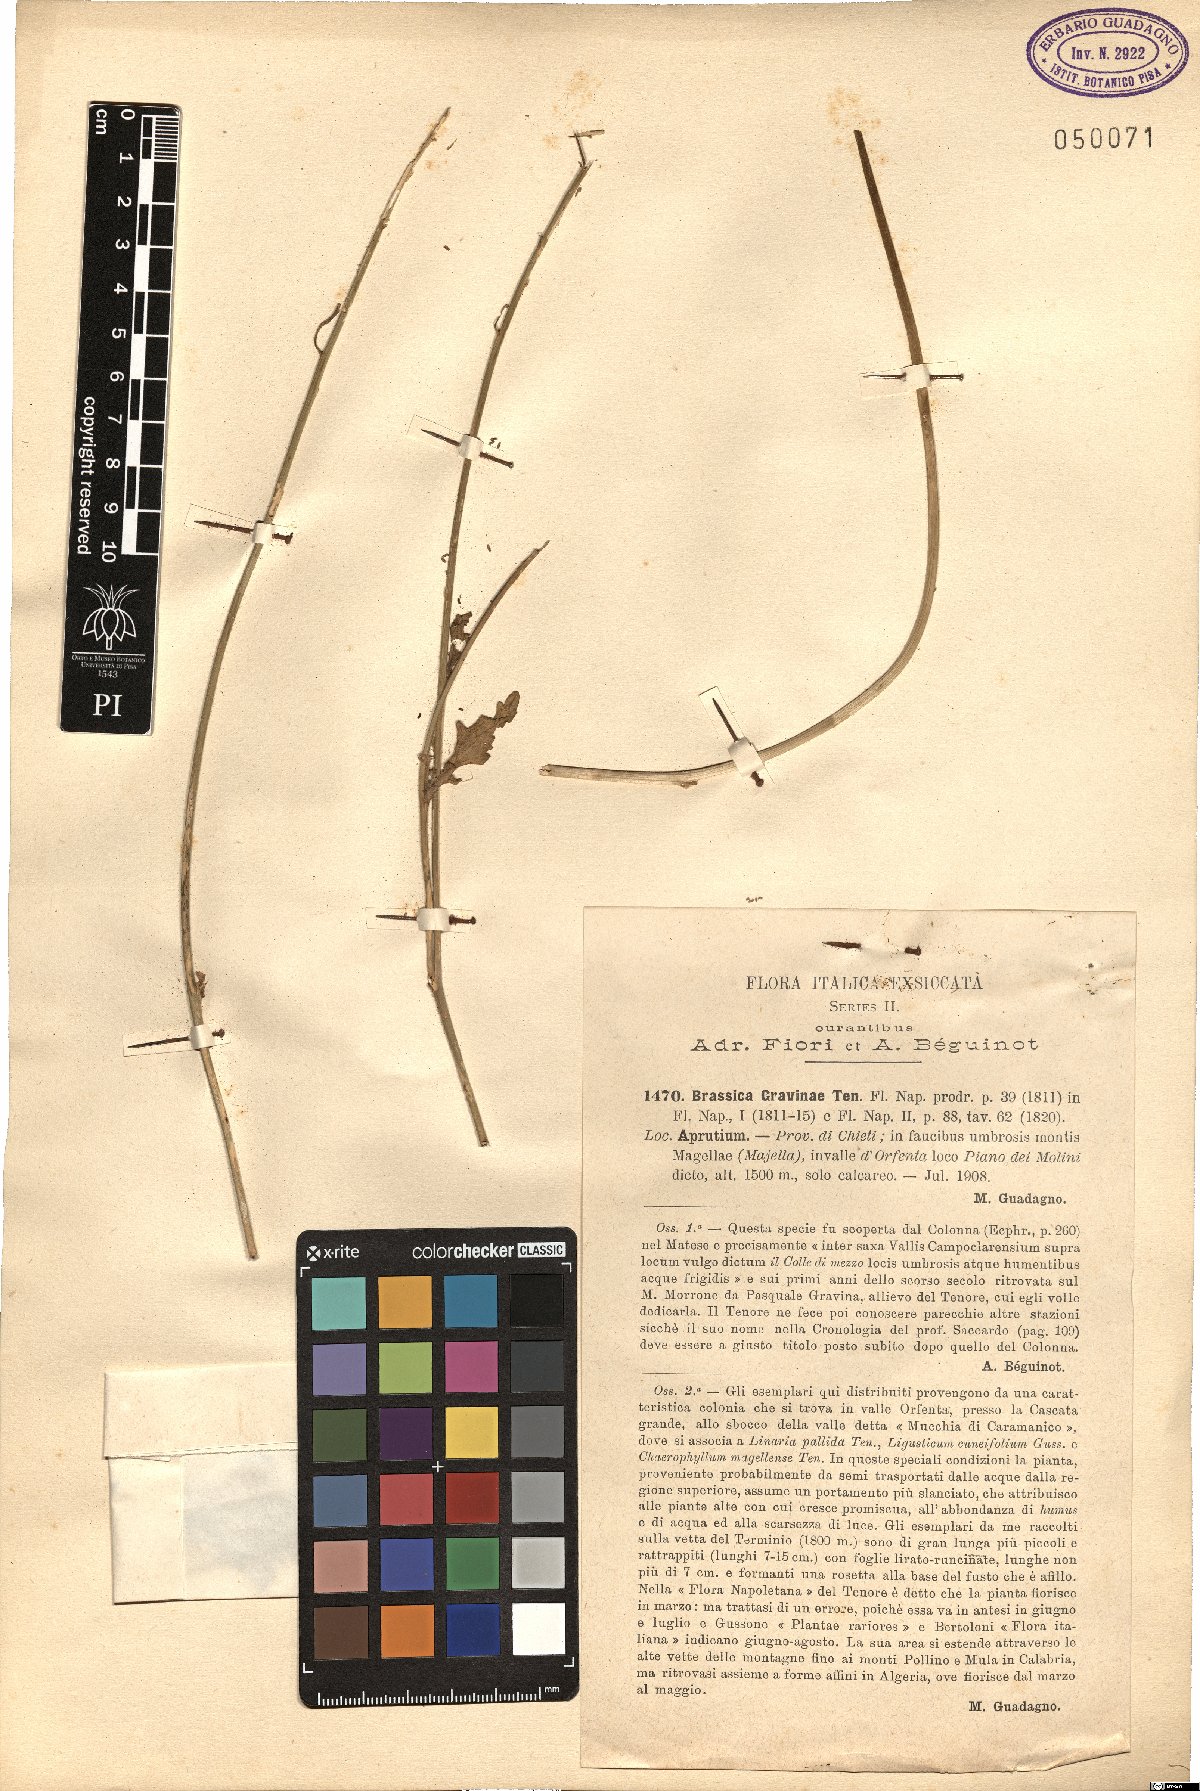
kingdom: Plantae
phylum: Tracheophyta
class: Magnoliopsida
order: Brassicales
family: Brassicaceae
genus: Brassica
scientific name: Brassica gravinae
